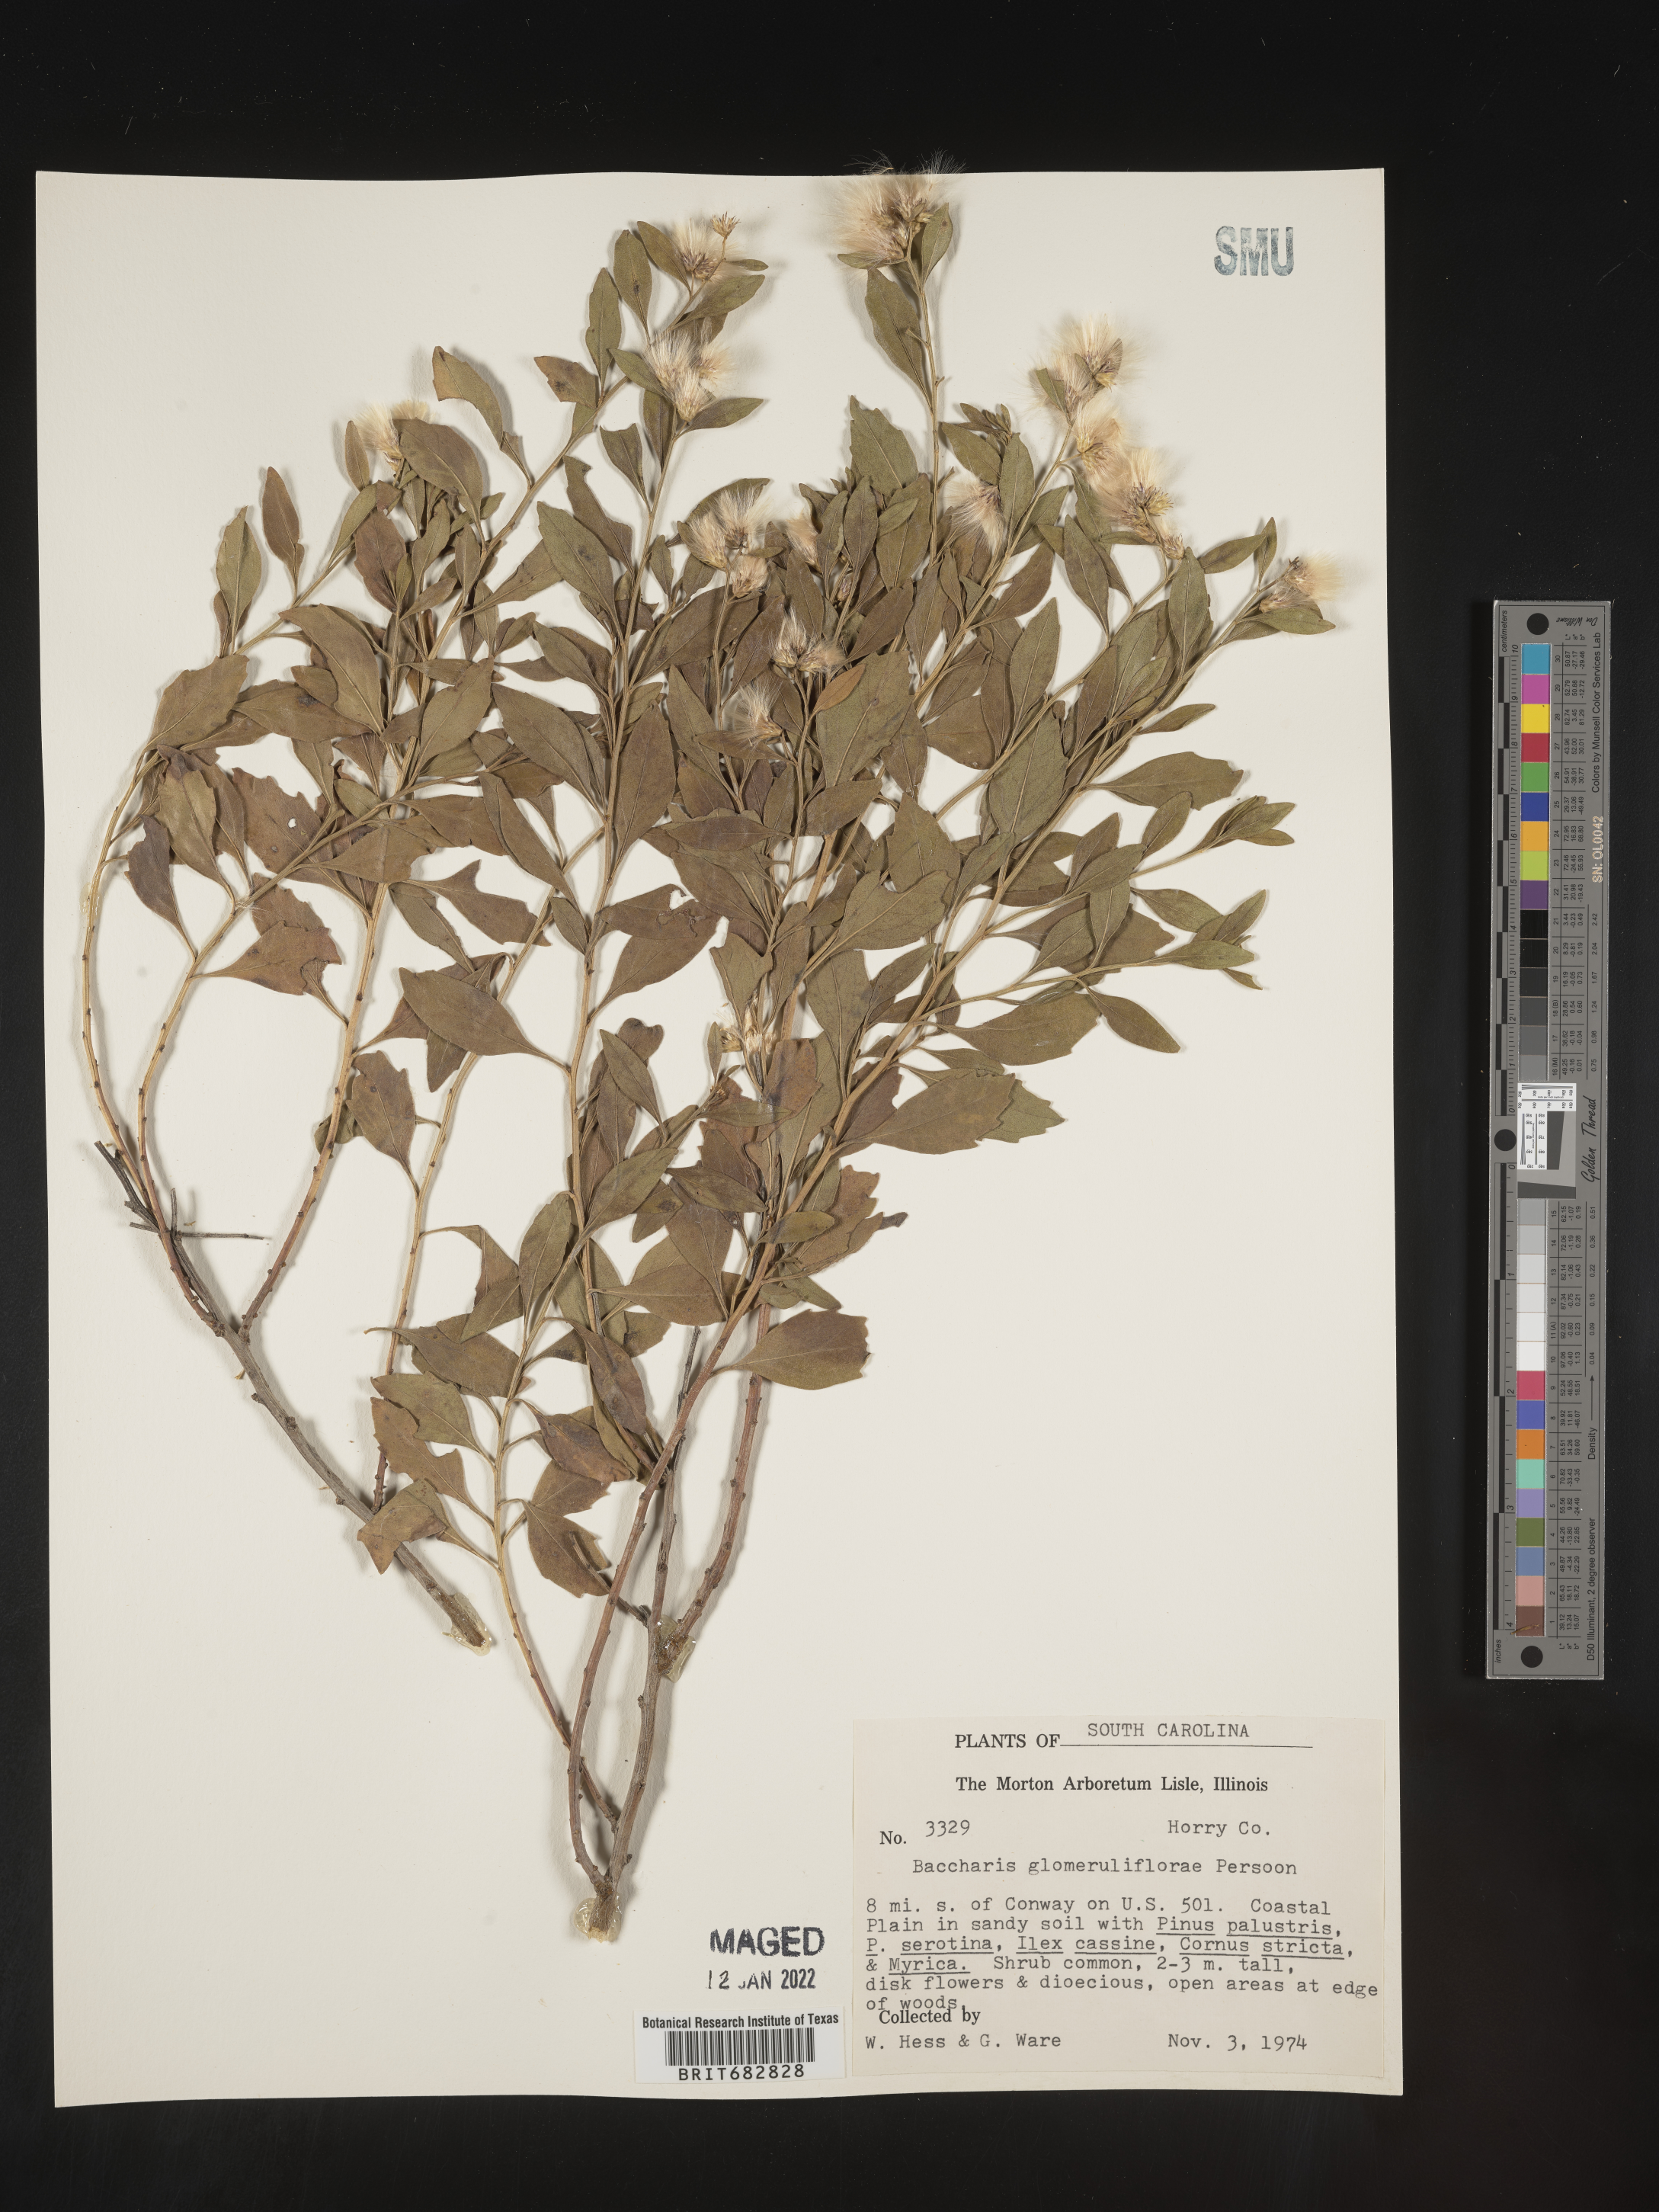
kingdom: Plantae
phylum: Tracheophyta
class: Magnoliopsida
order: Asterales
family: Asteraceae
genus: Baccharis
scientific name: Baccharis glomeruliflora
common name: Silverling groundsel bush
